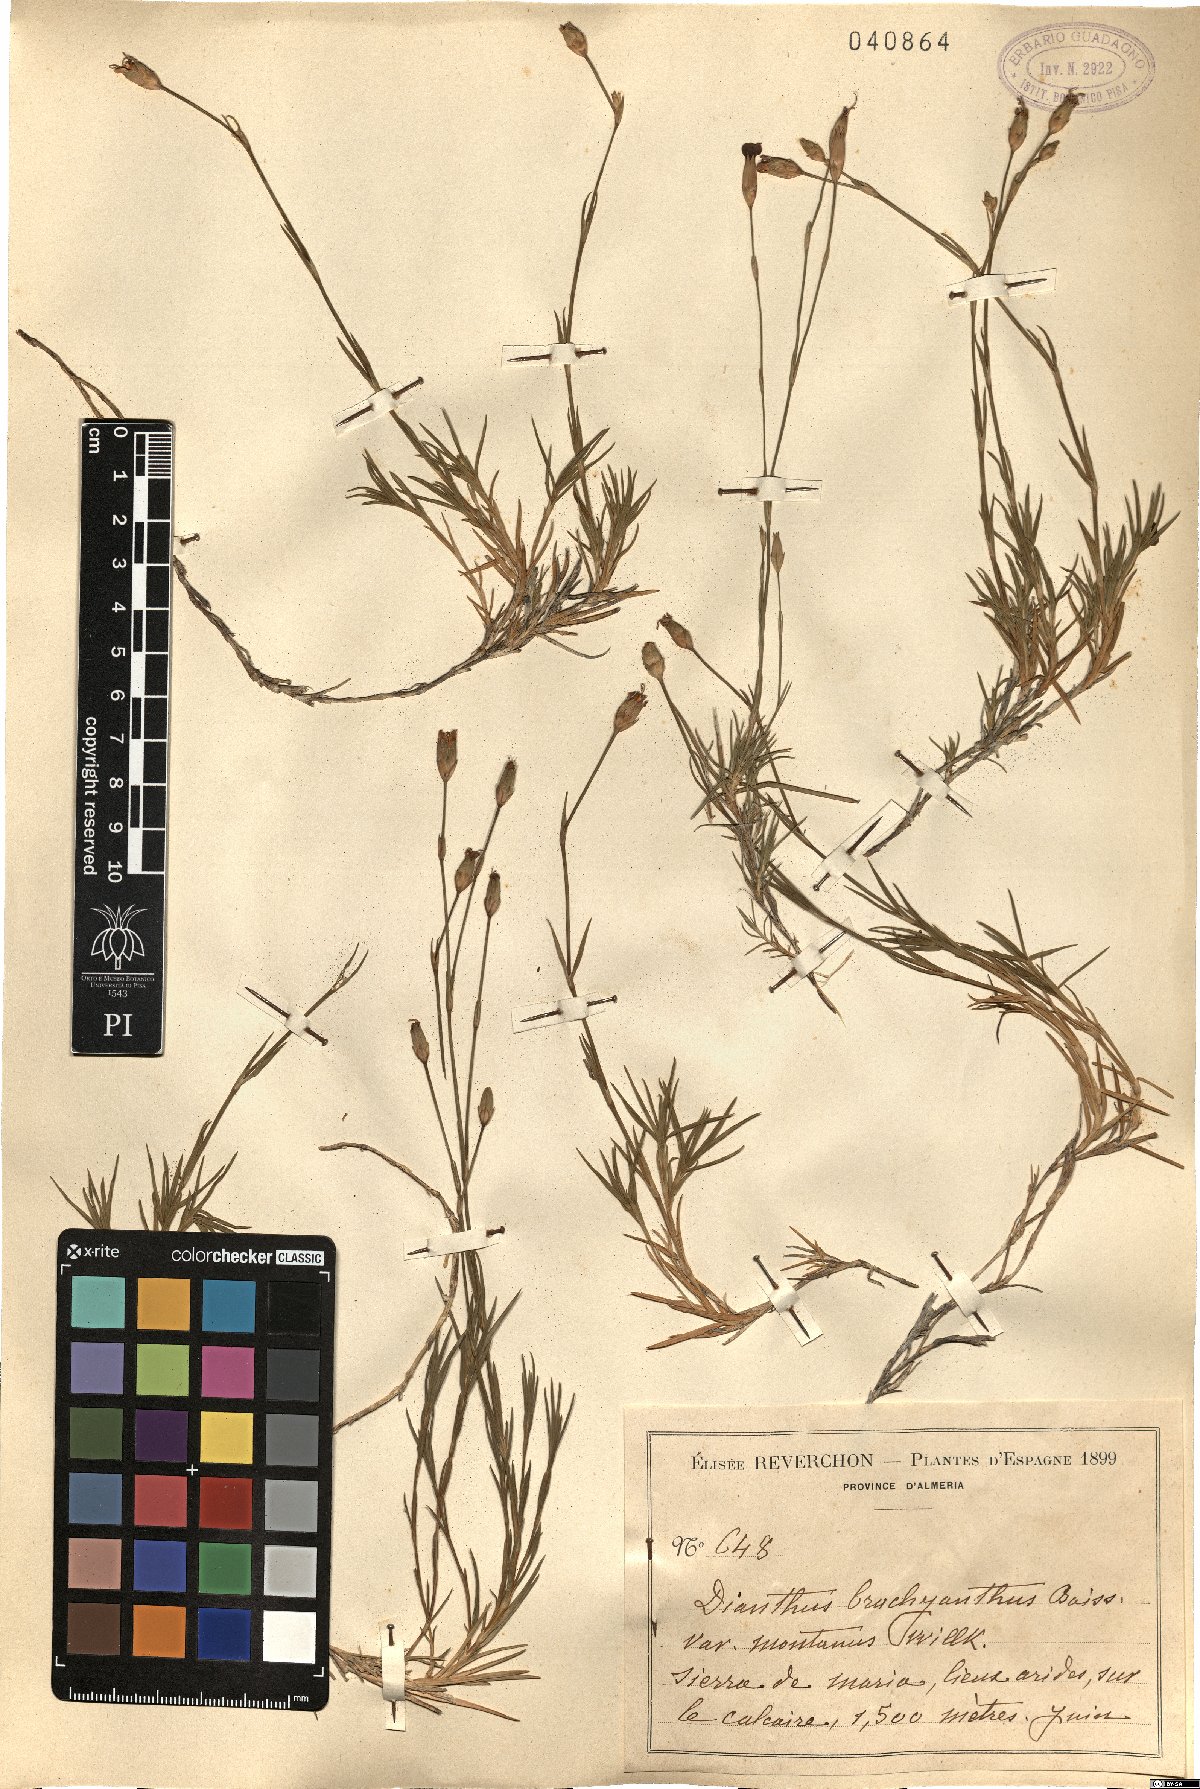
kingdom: Plantae
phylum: Tracheophyta
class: Magnoliopsida
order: Caryophyllales
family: Caryophyllaceae
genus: Dianthus
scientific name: Dianthus pungens
